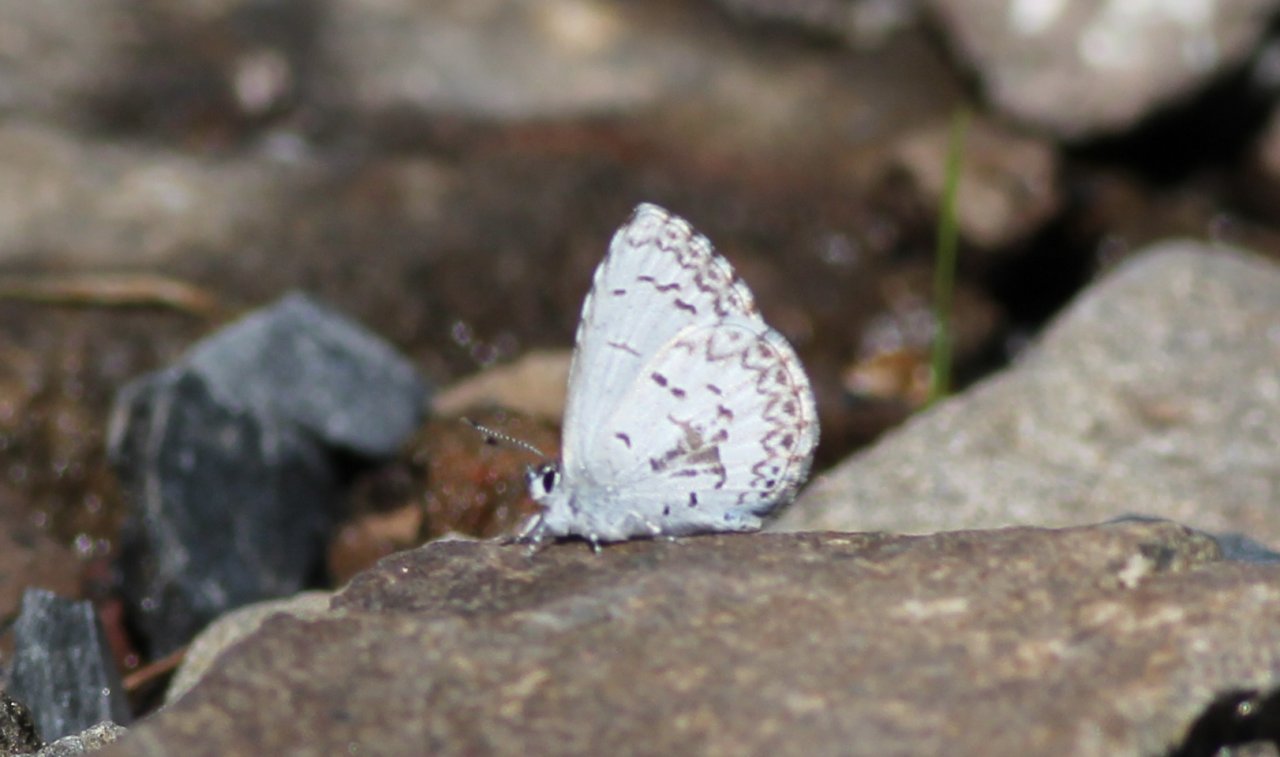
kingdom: Animalia
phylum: Arthropoda
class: Insecta
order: Lepidoptera
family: Lycaenidae
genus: Celastrina
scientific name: Celastrina lucia
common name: Northern Spring Azure
